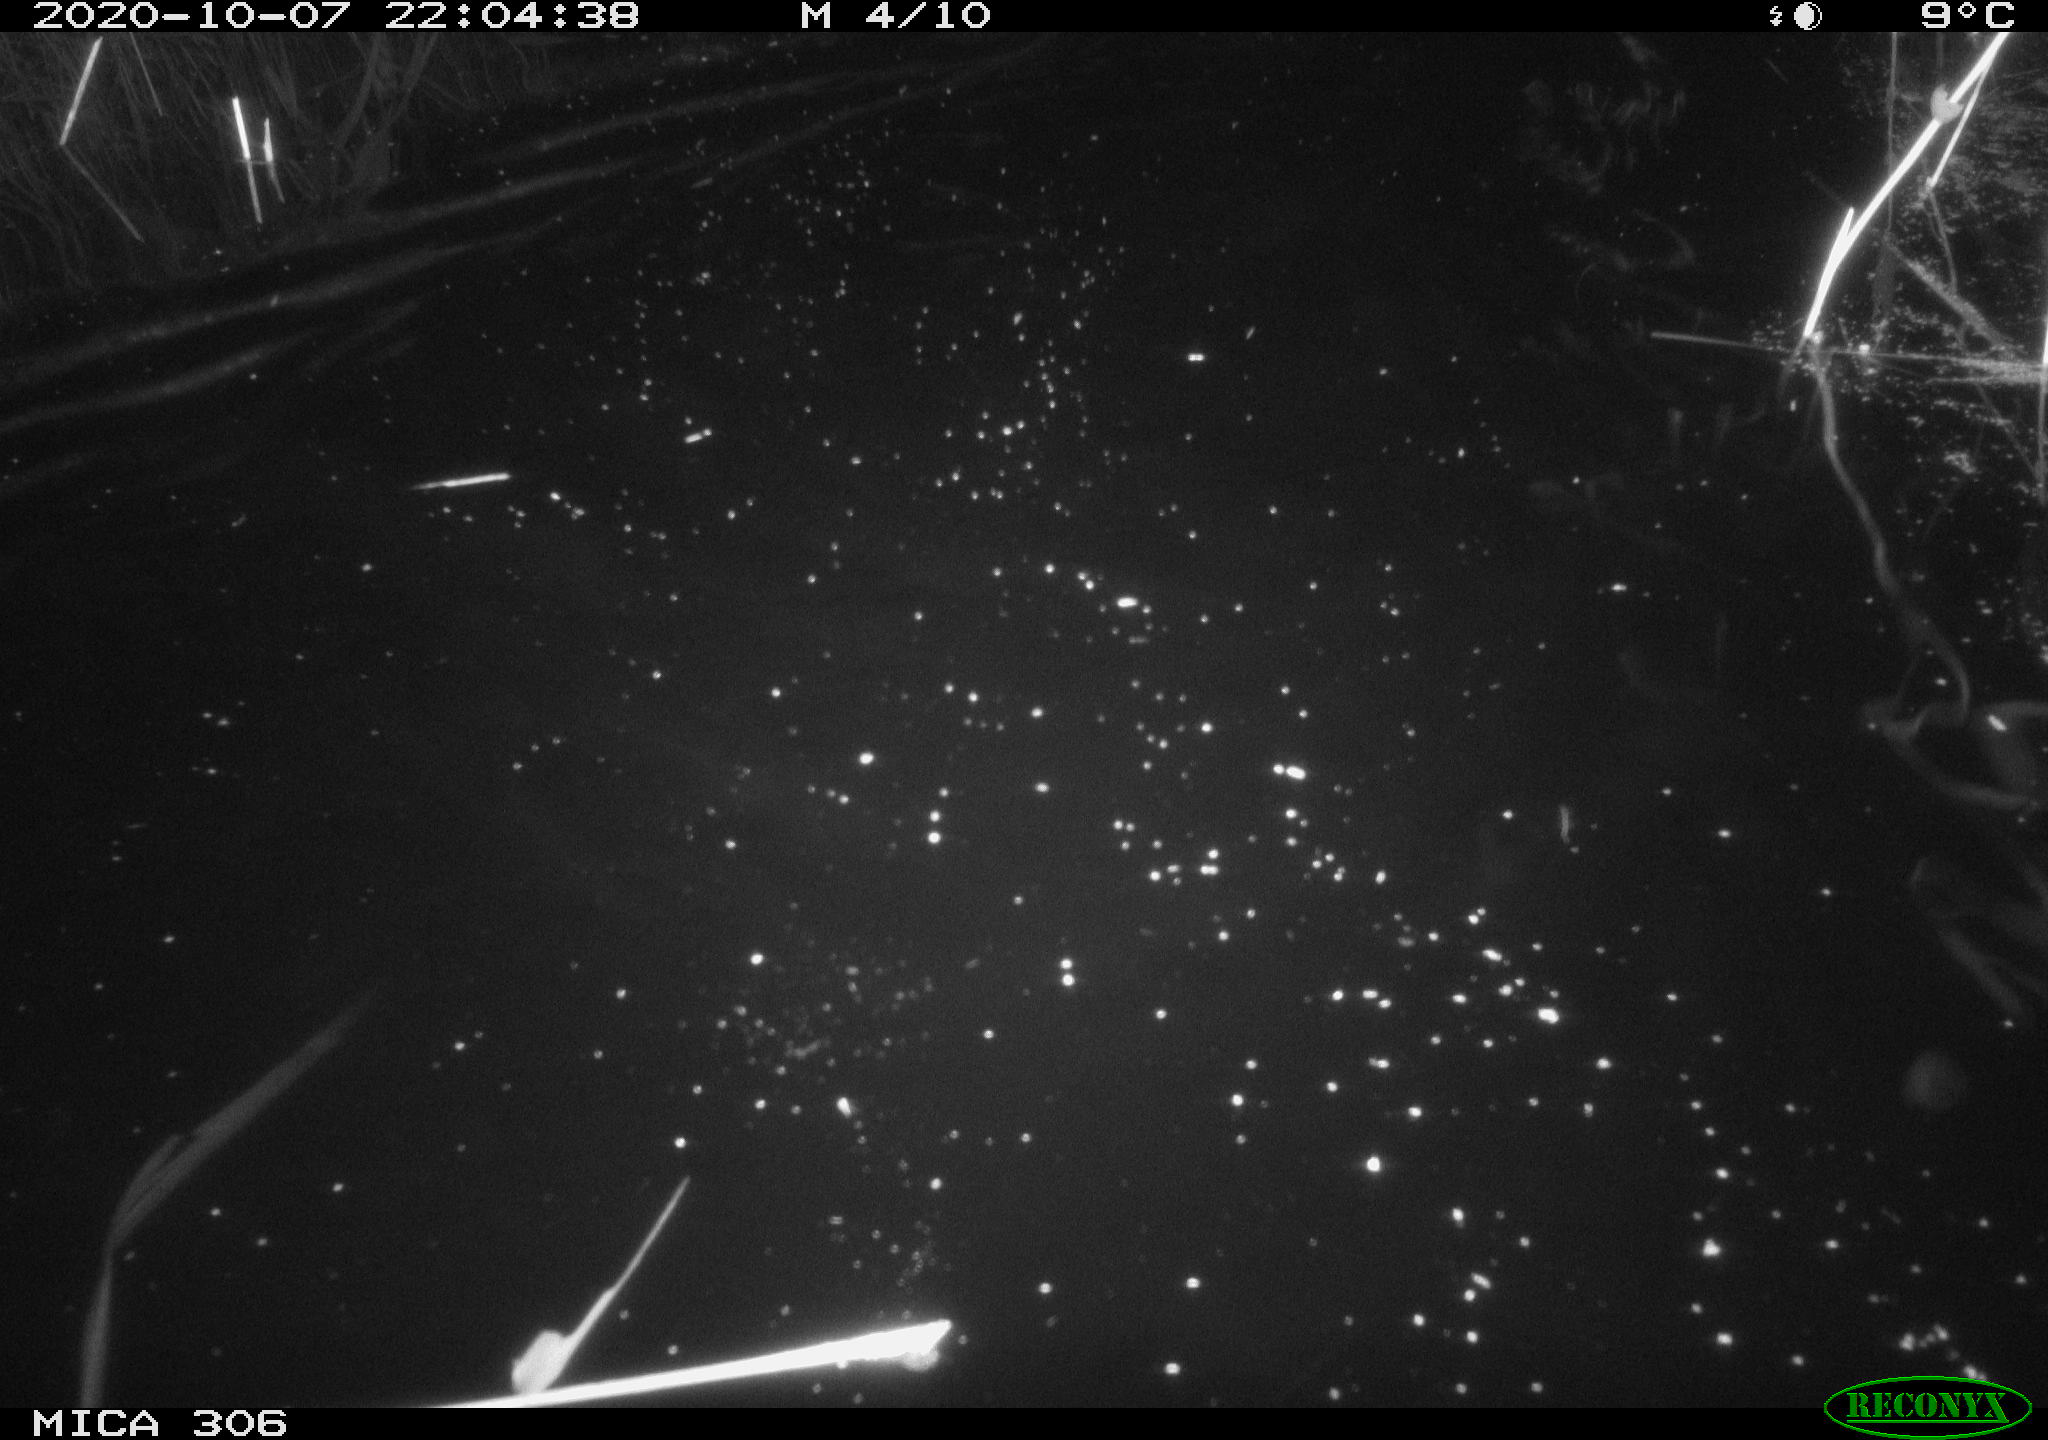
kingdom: Animalia
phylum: Chordata
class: Mammalia
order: Rodentia
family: Cricetidae
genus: Ondatra
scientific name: Ondatra zibethicus
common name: Muskrat
